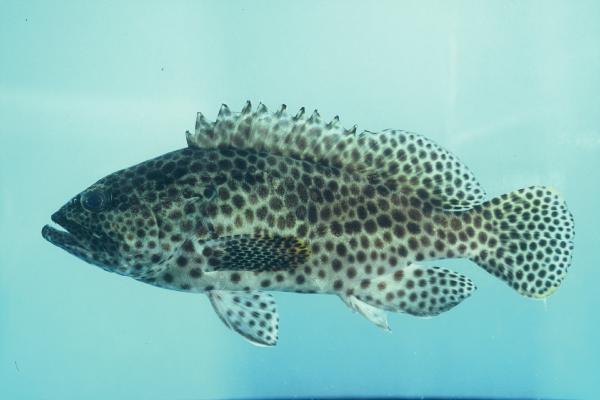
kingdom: Animalia
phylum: Chordata
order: Perciformes
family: Serranidae
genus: Epinephelus
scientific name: Epinephelus merra
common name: Honeycomb grouper
